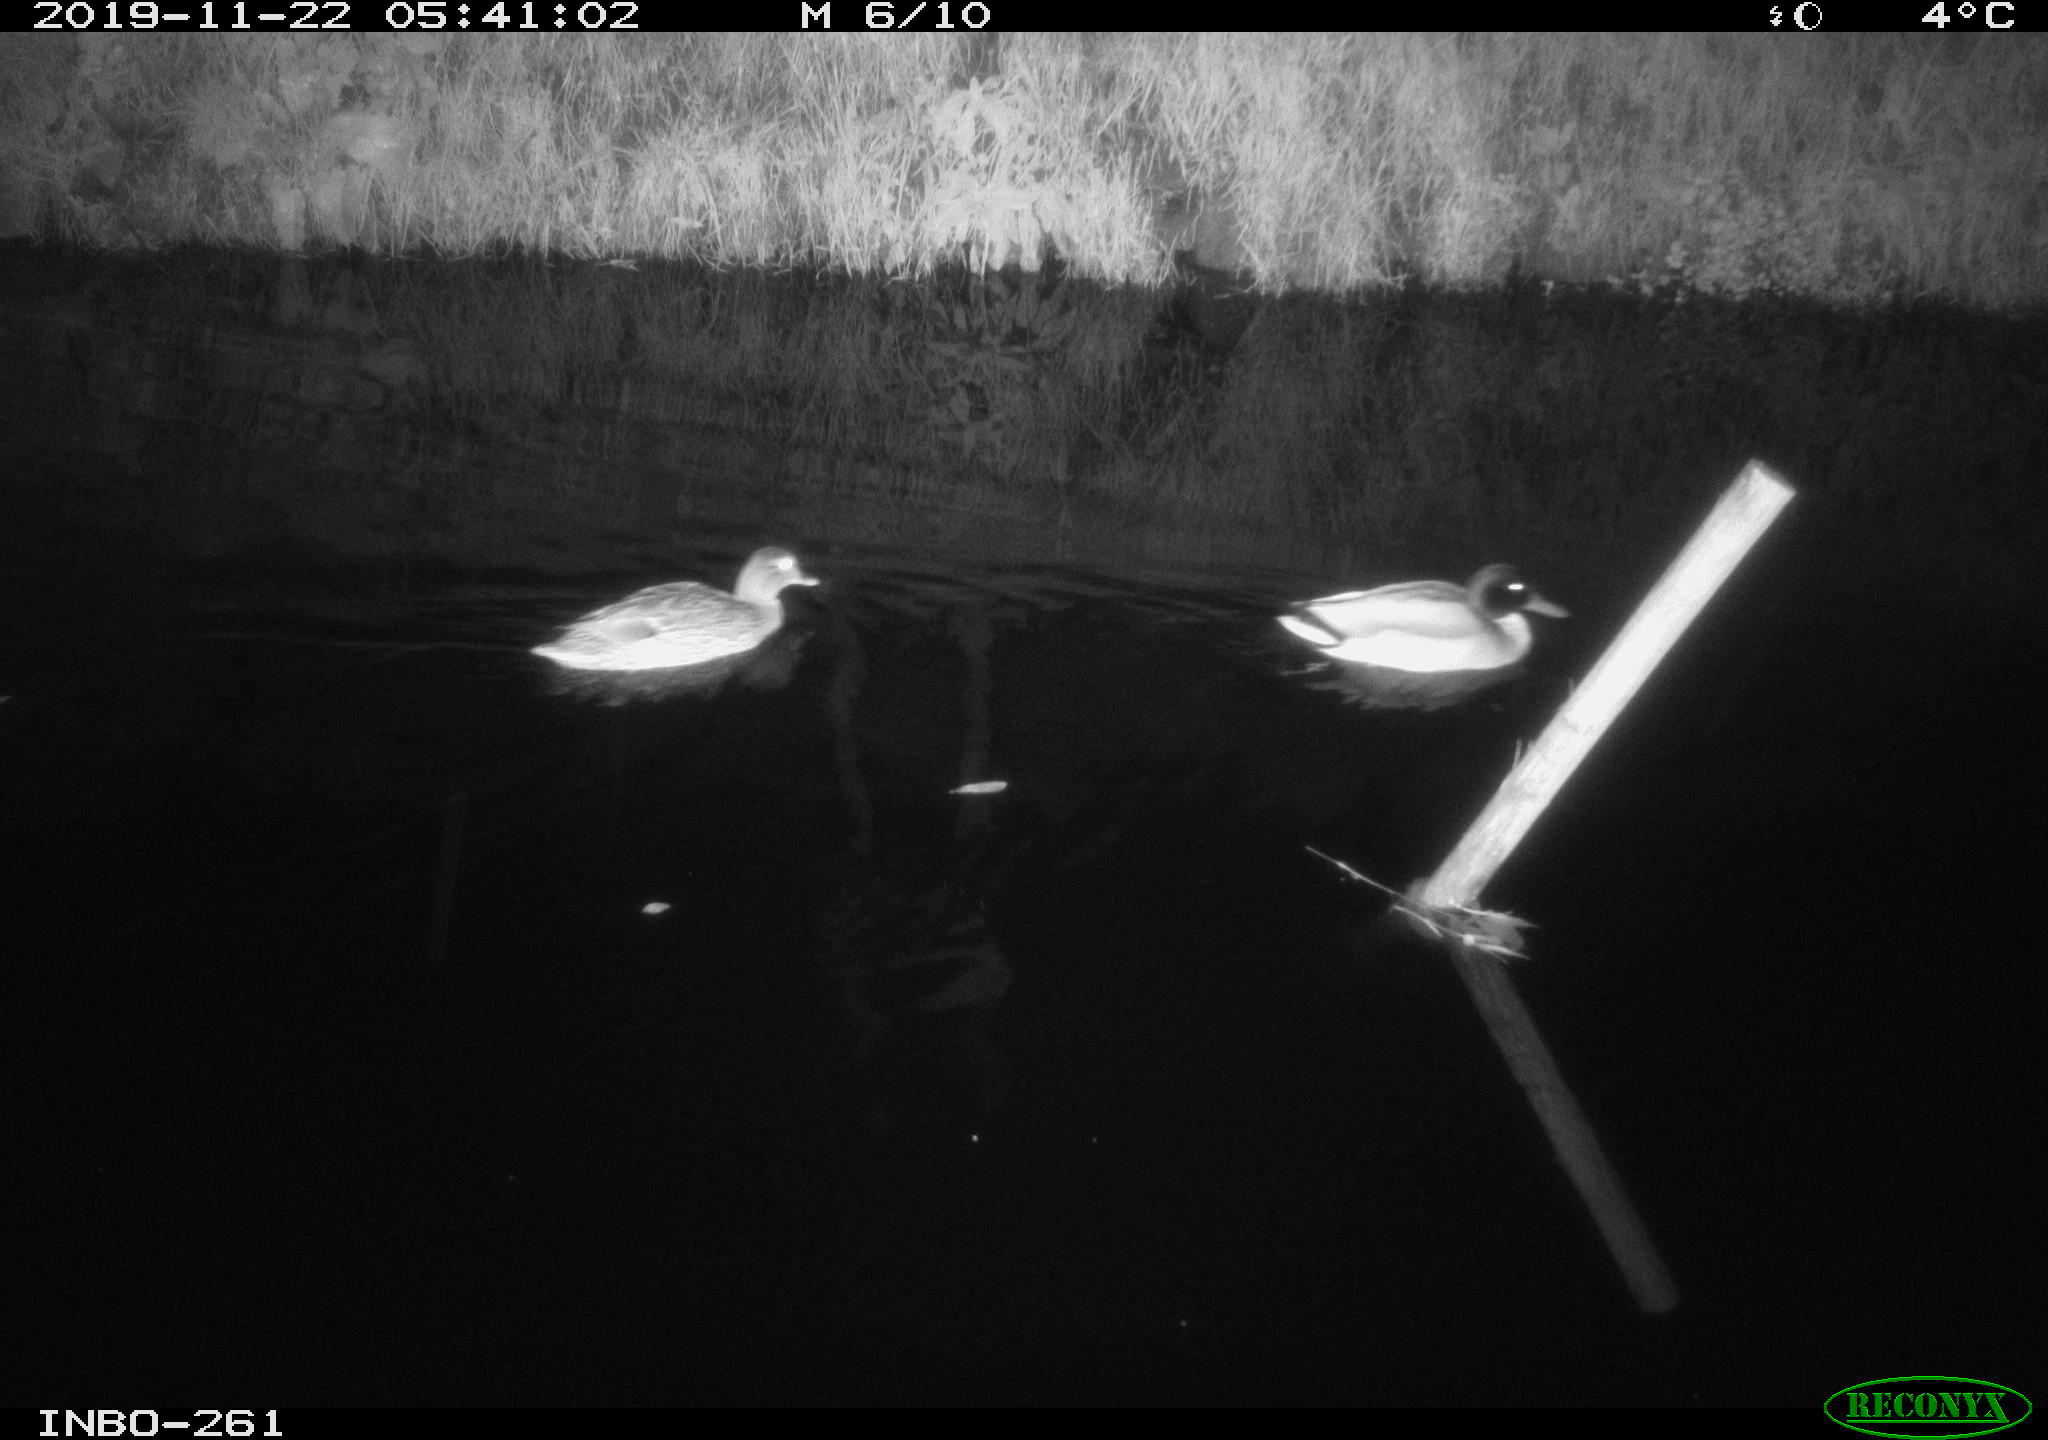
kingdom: Animalia
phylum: Chordata
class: Aves
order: Anseriformes
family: Anatidae
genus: Anas
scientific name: Anas platyrhynchos
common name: Mallard
